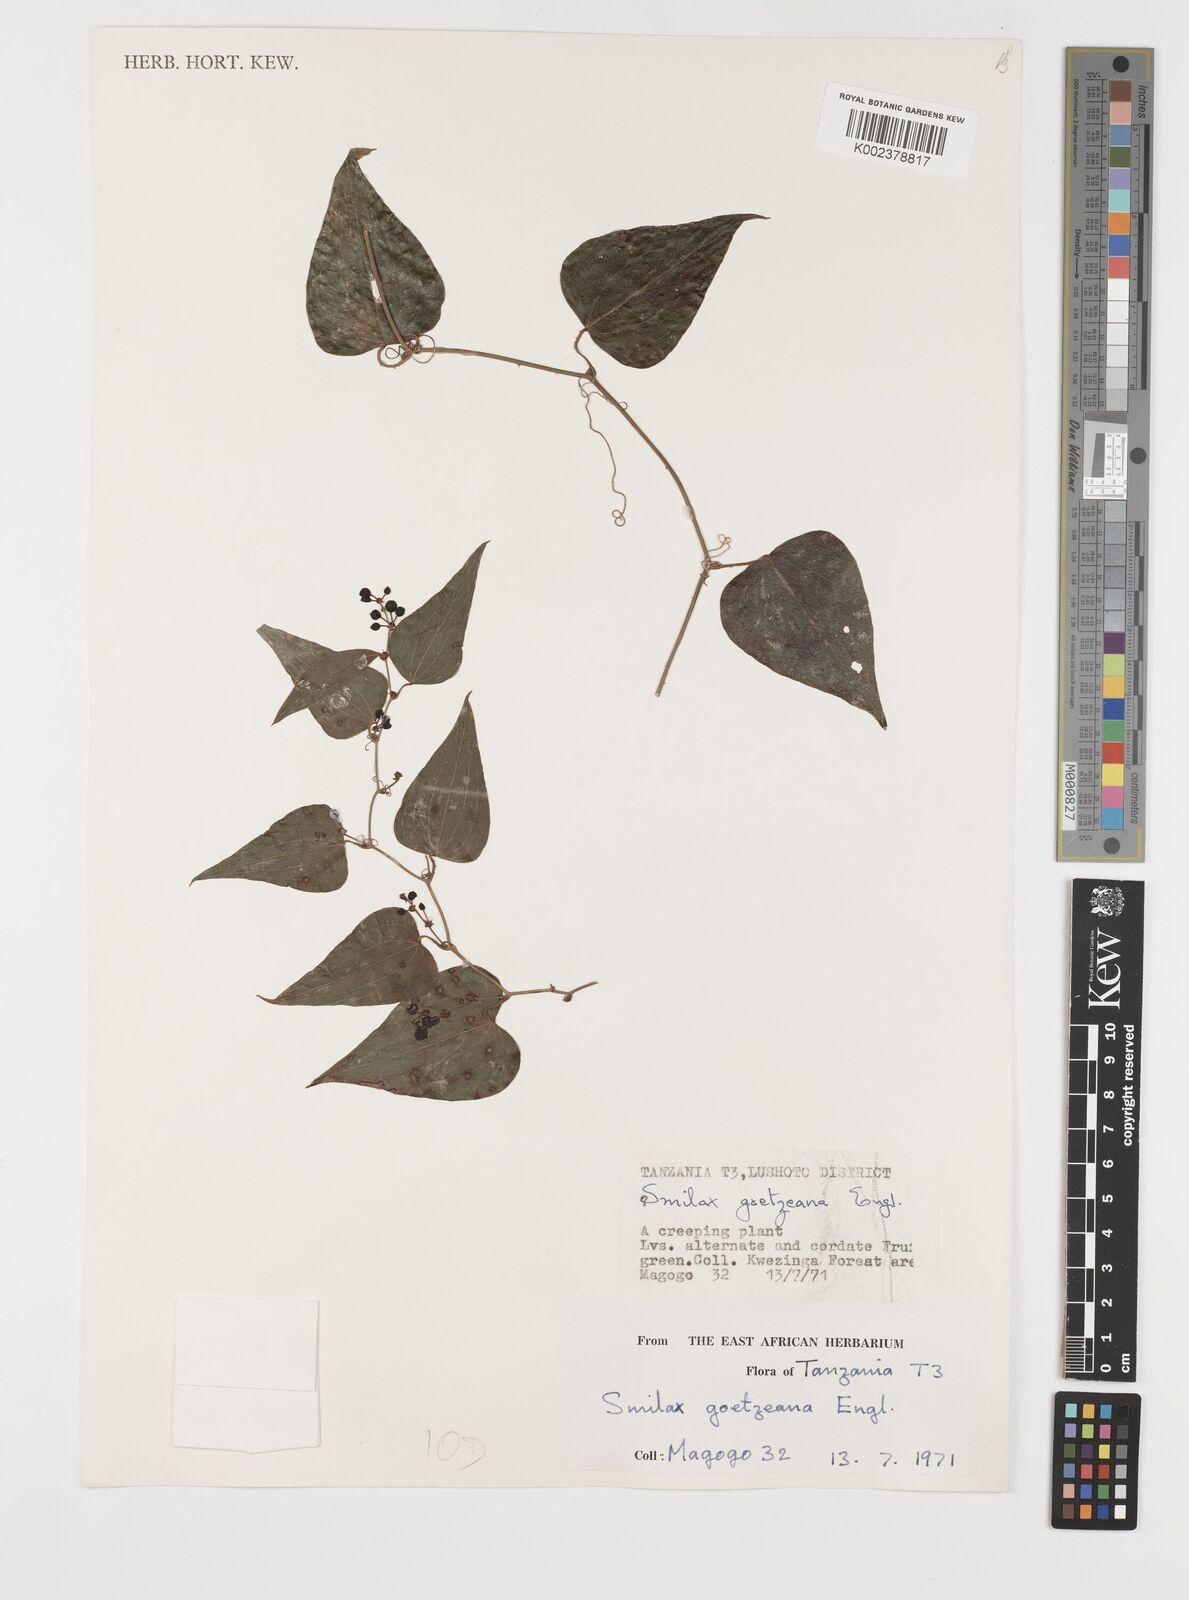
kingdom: Plantae
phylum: Tracheophyta
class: Liliopsida
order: Liliales
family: Smilacaceae
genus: Smilax
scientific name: Smilax aspera
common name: Common smilax
